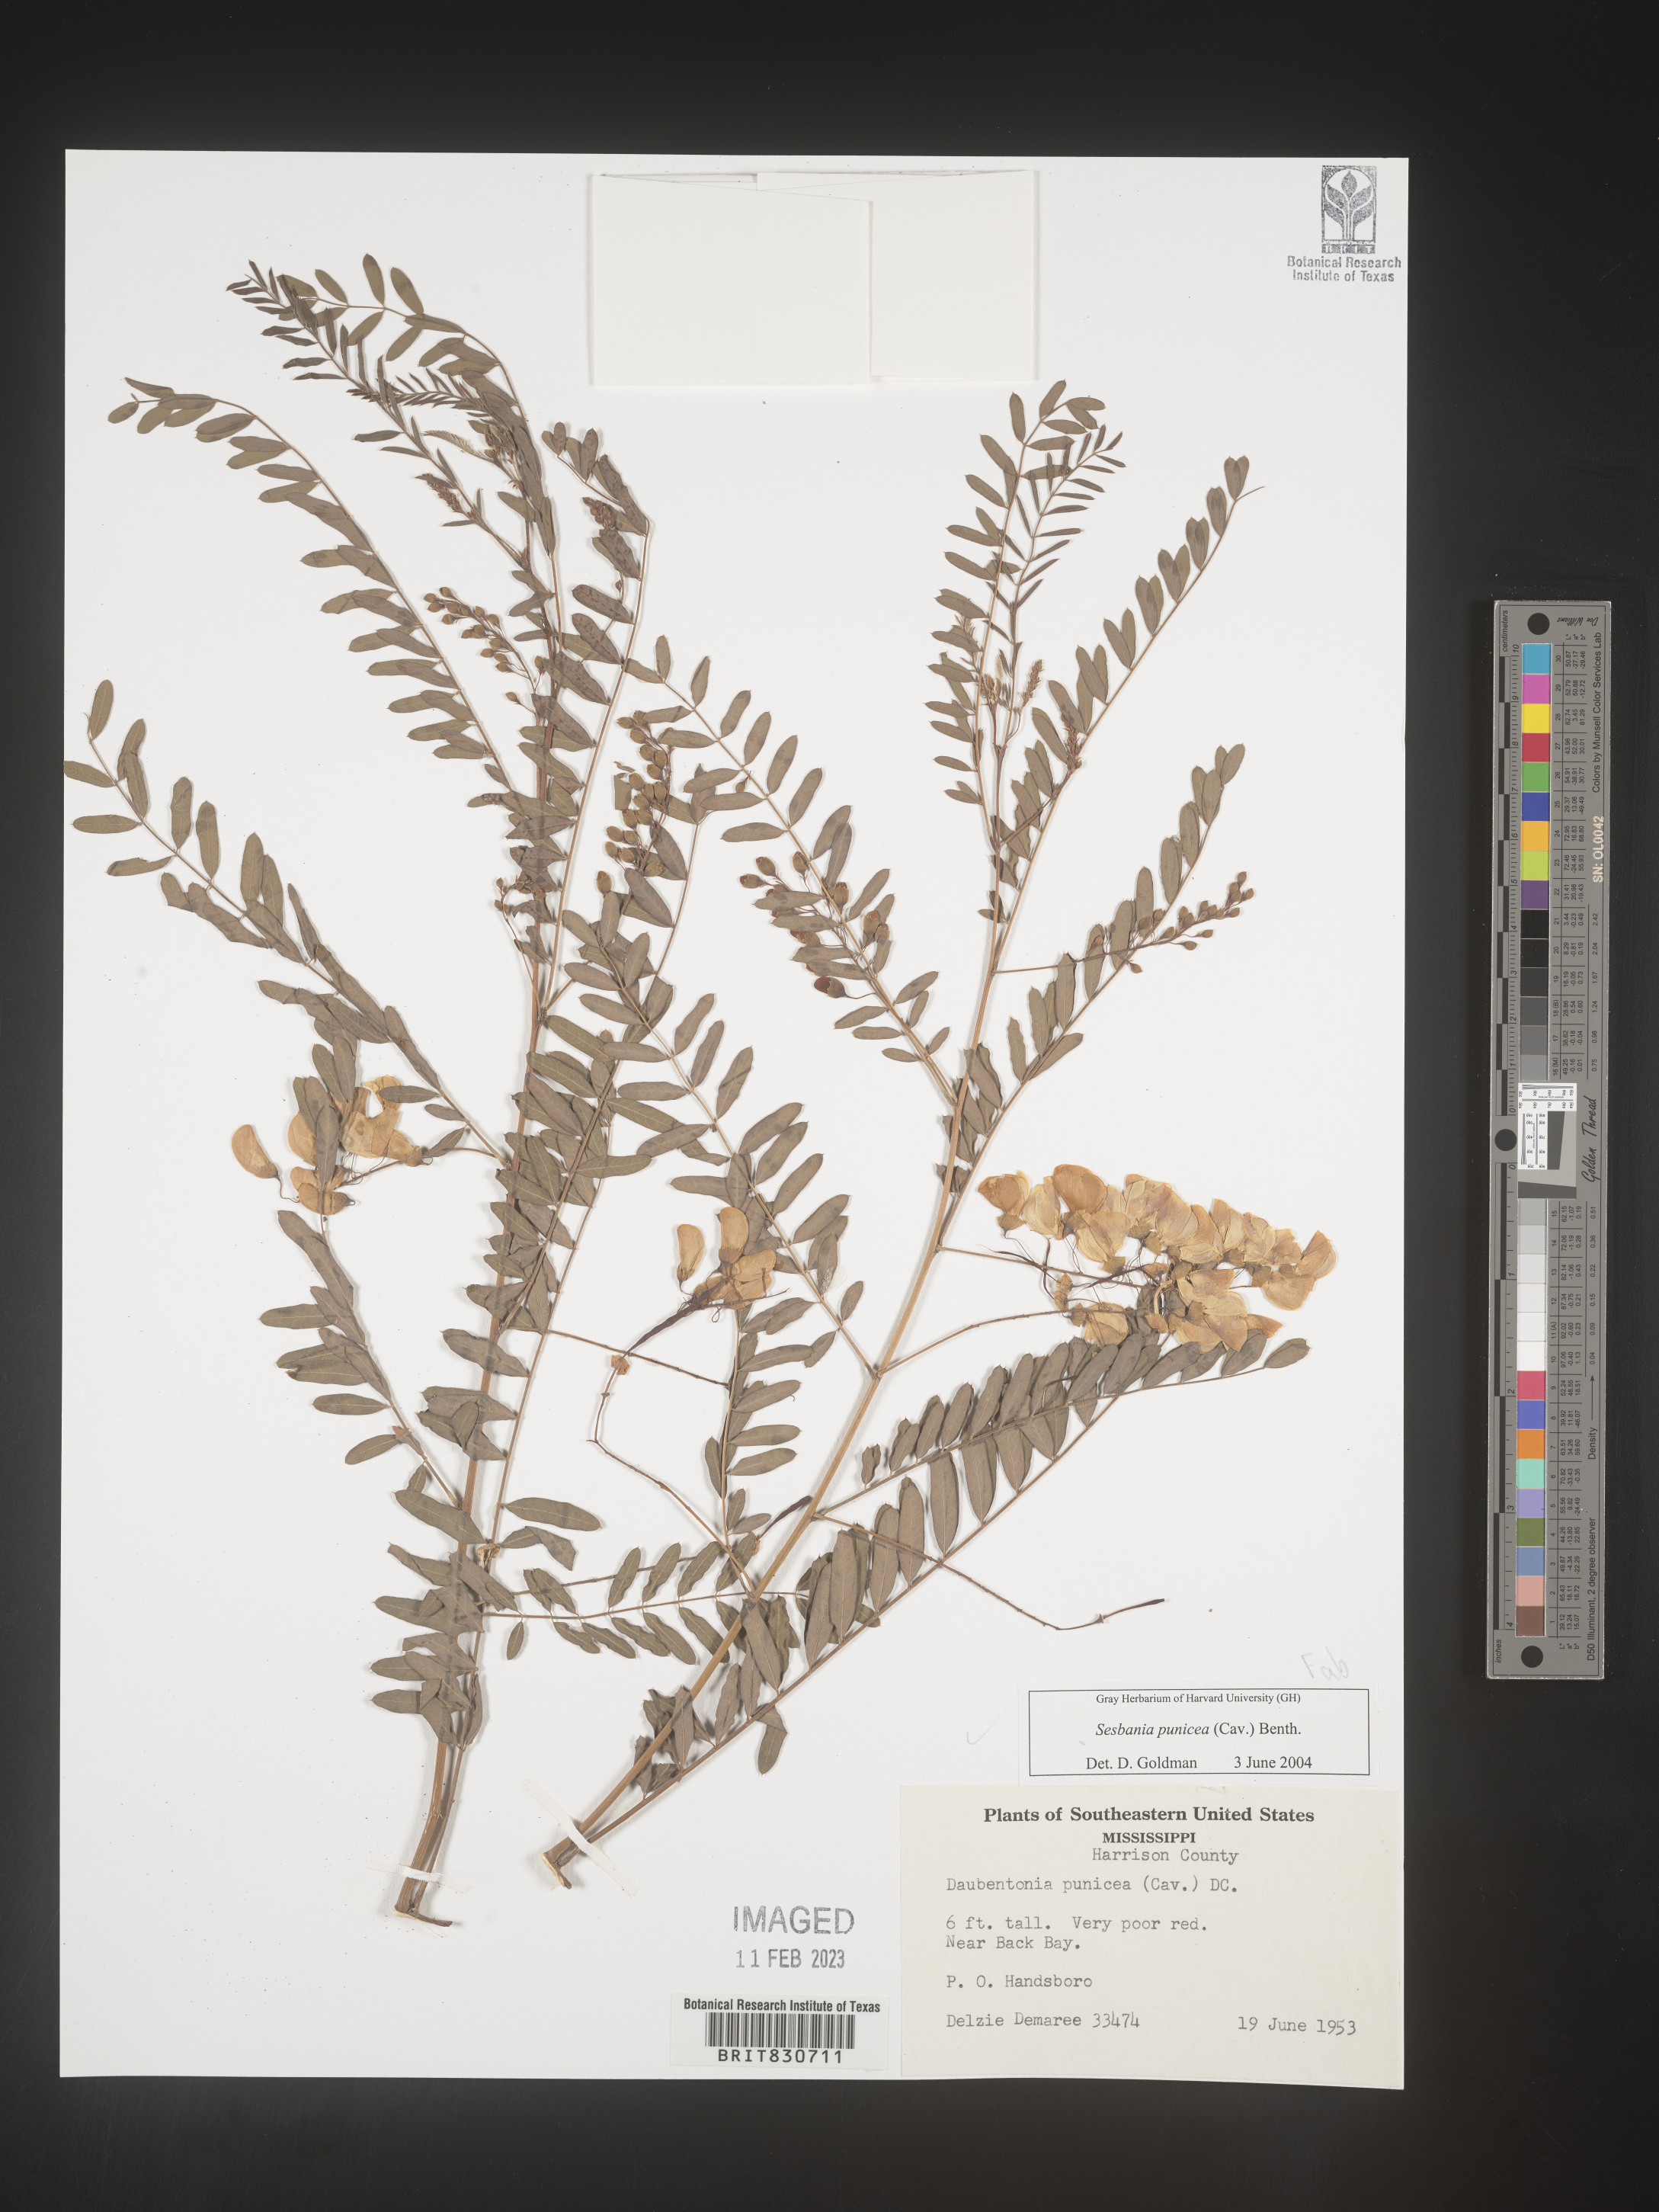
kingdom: Plantae
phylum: Tracheophyta
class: Magnoliopsida
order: Fabales
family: Fabaceae
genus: Sesbania
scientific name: Sesbania punicea
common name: Rattlebox
